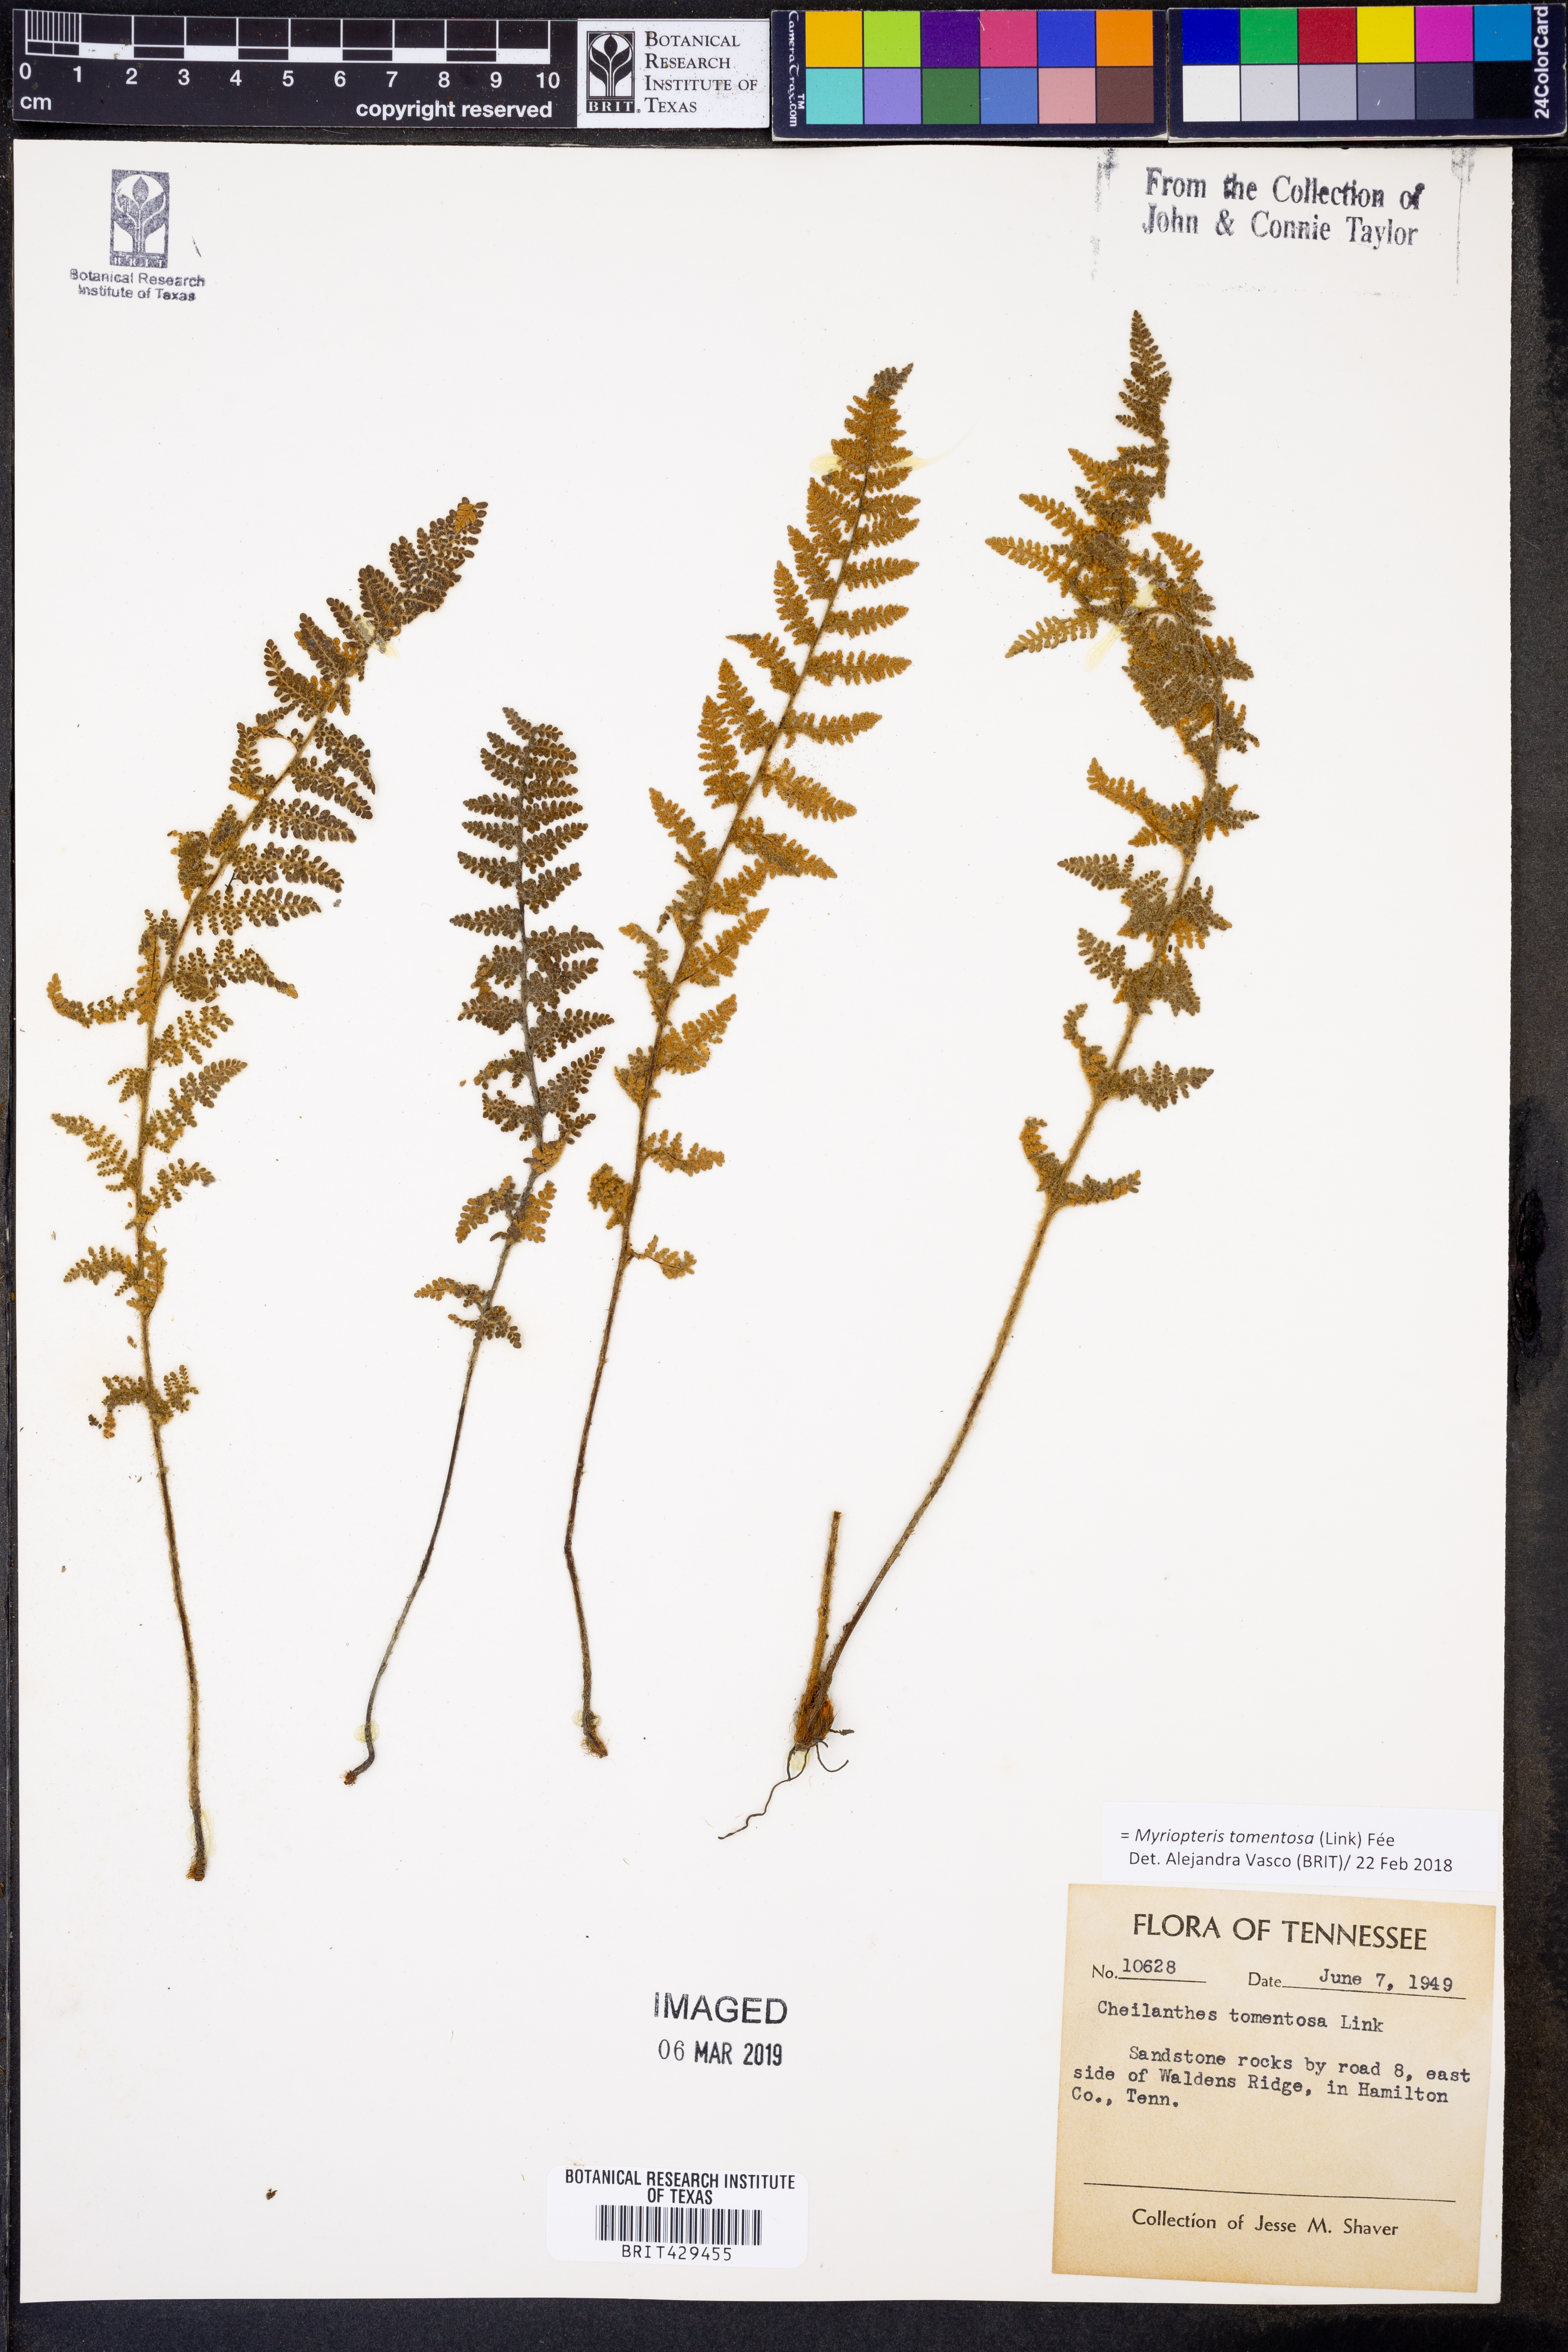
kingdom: Plantae
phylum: Tracheophyta
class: Polypodiopsida
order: Polypodiales
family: Pteridaceae
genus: Myriopteris
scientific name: Myriopteris tomentosa
